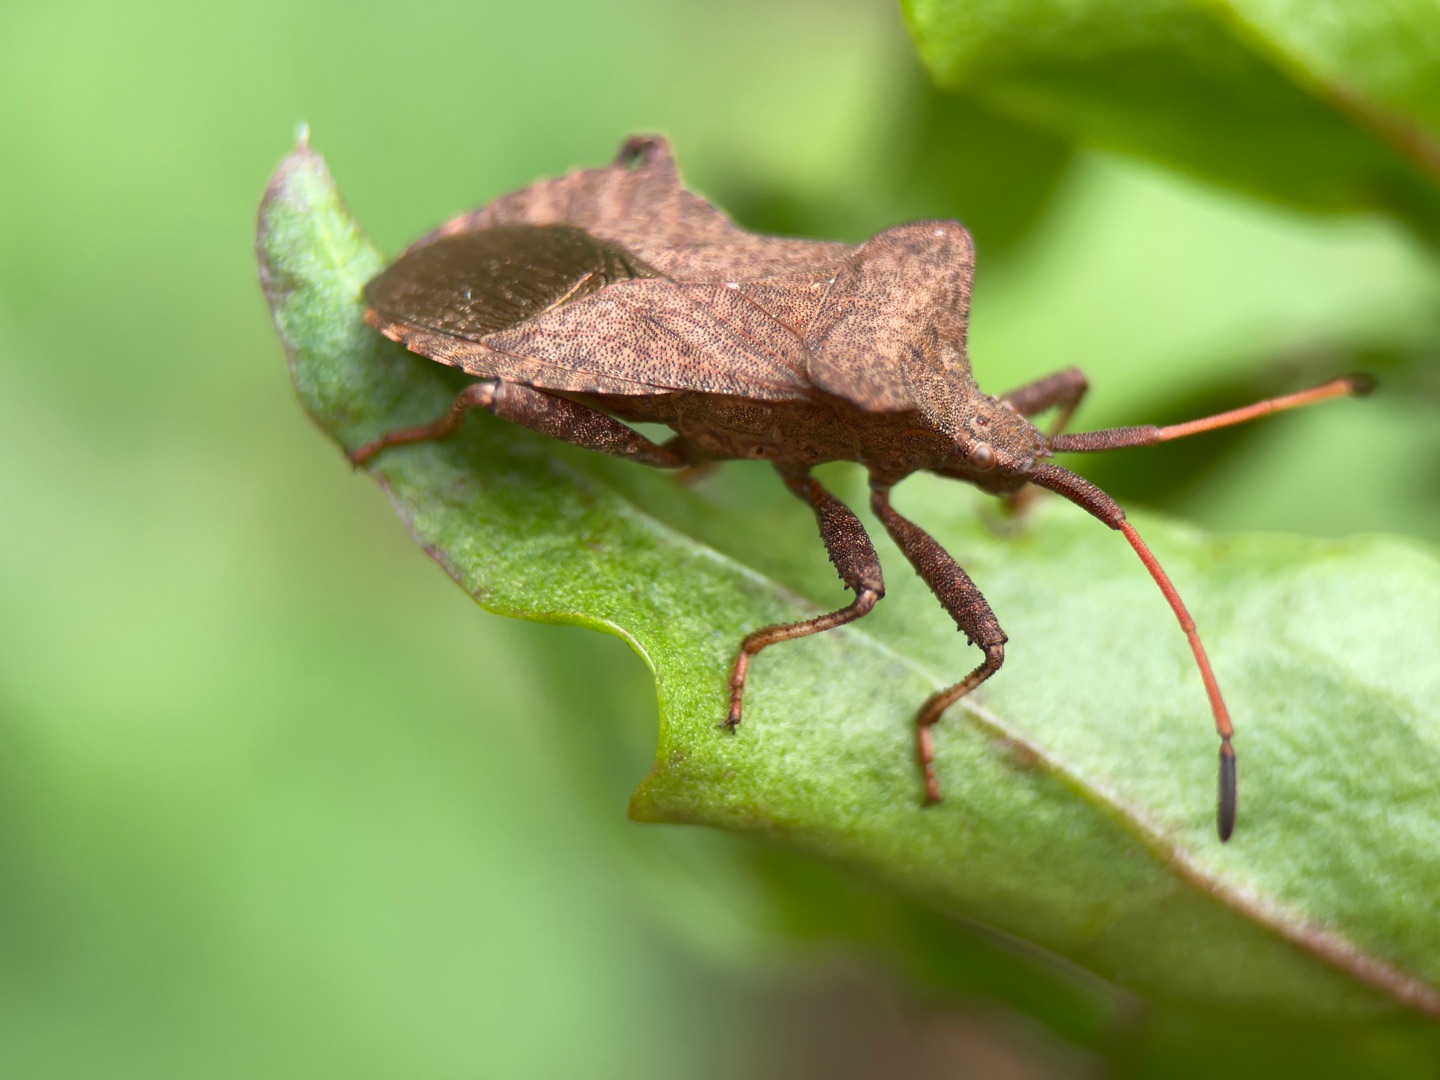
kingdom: Animalia
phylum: Arthropoda
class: Insecta
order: Hemiptera
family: Coreidae
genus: Coreus
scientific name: Coreus marginatus
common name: Skræppetæge
